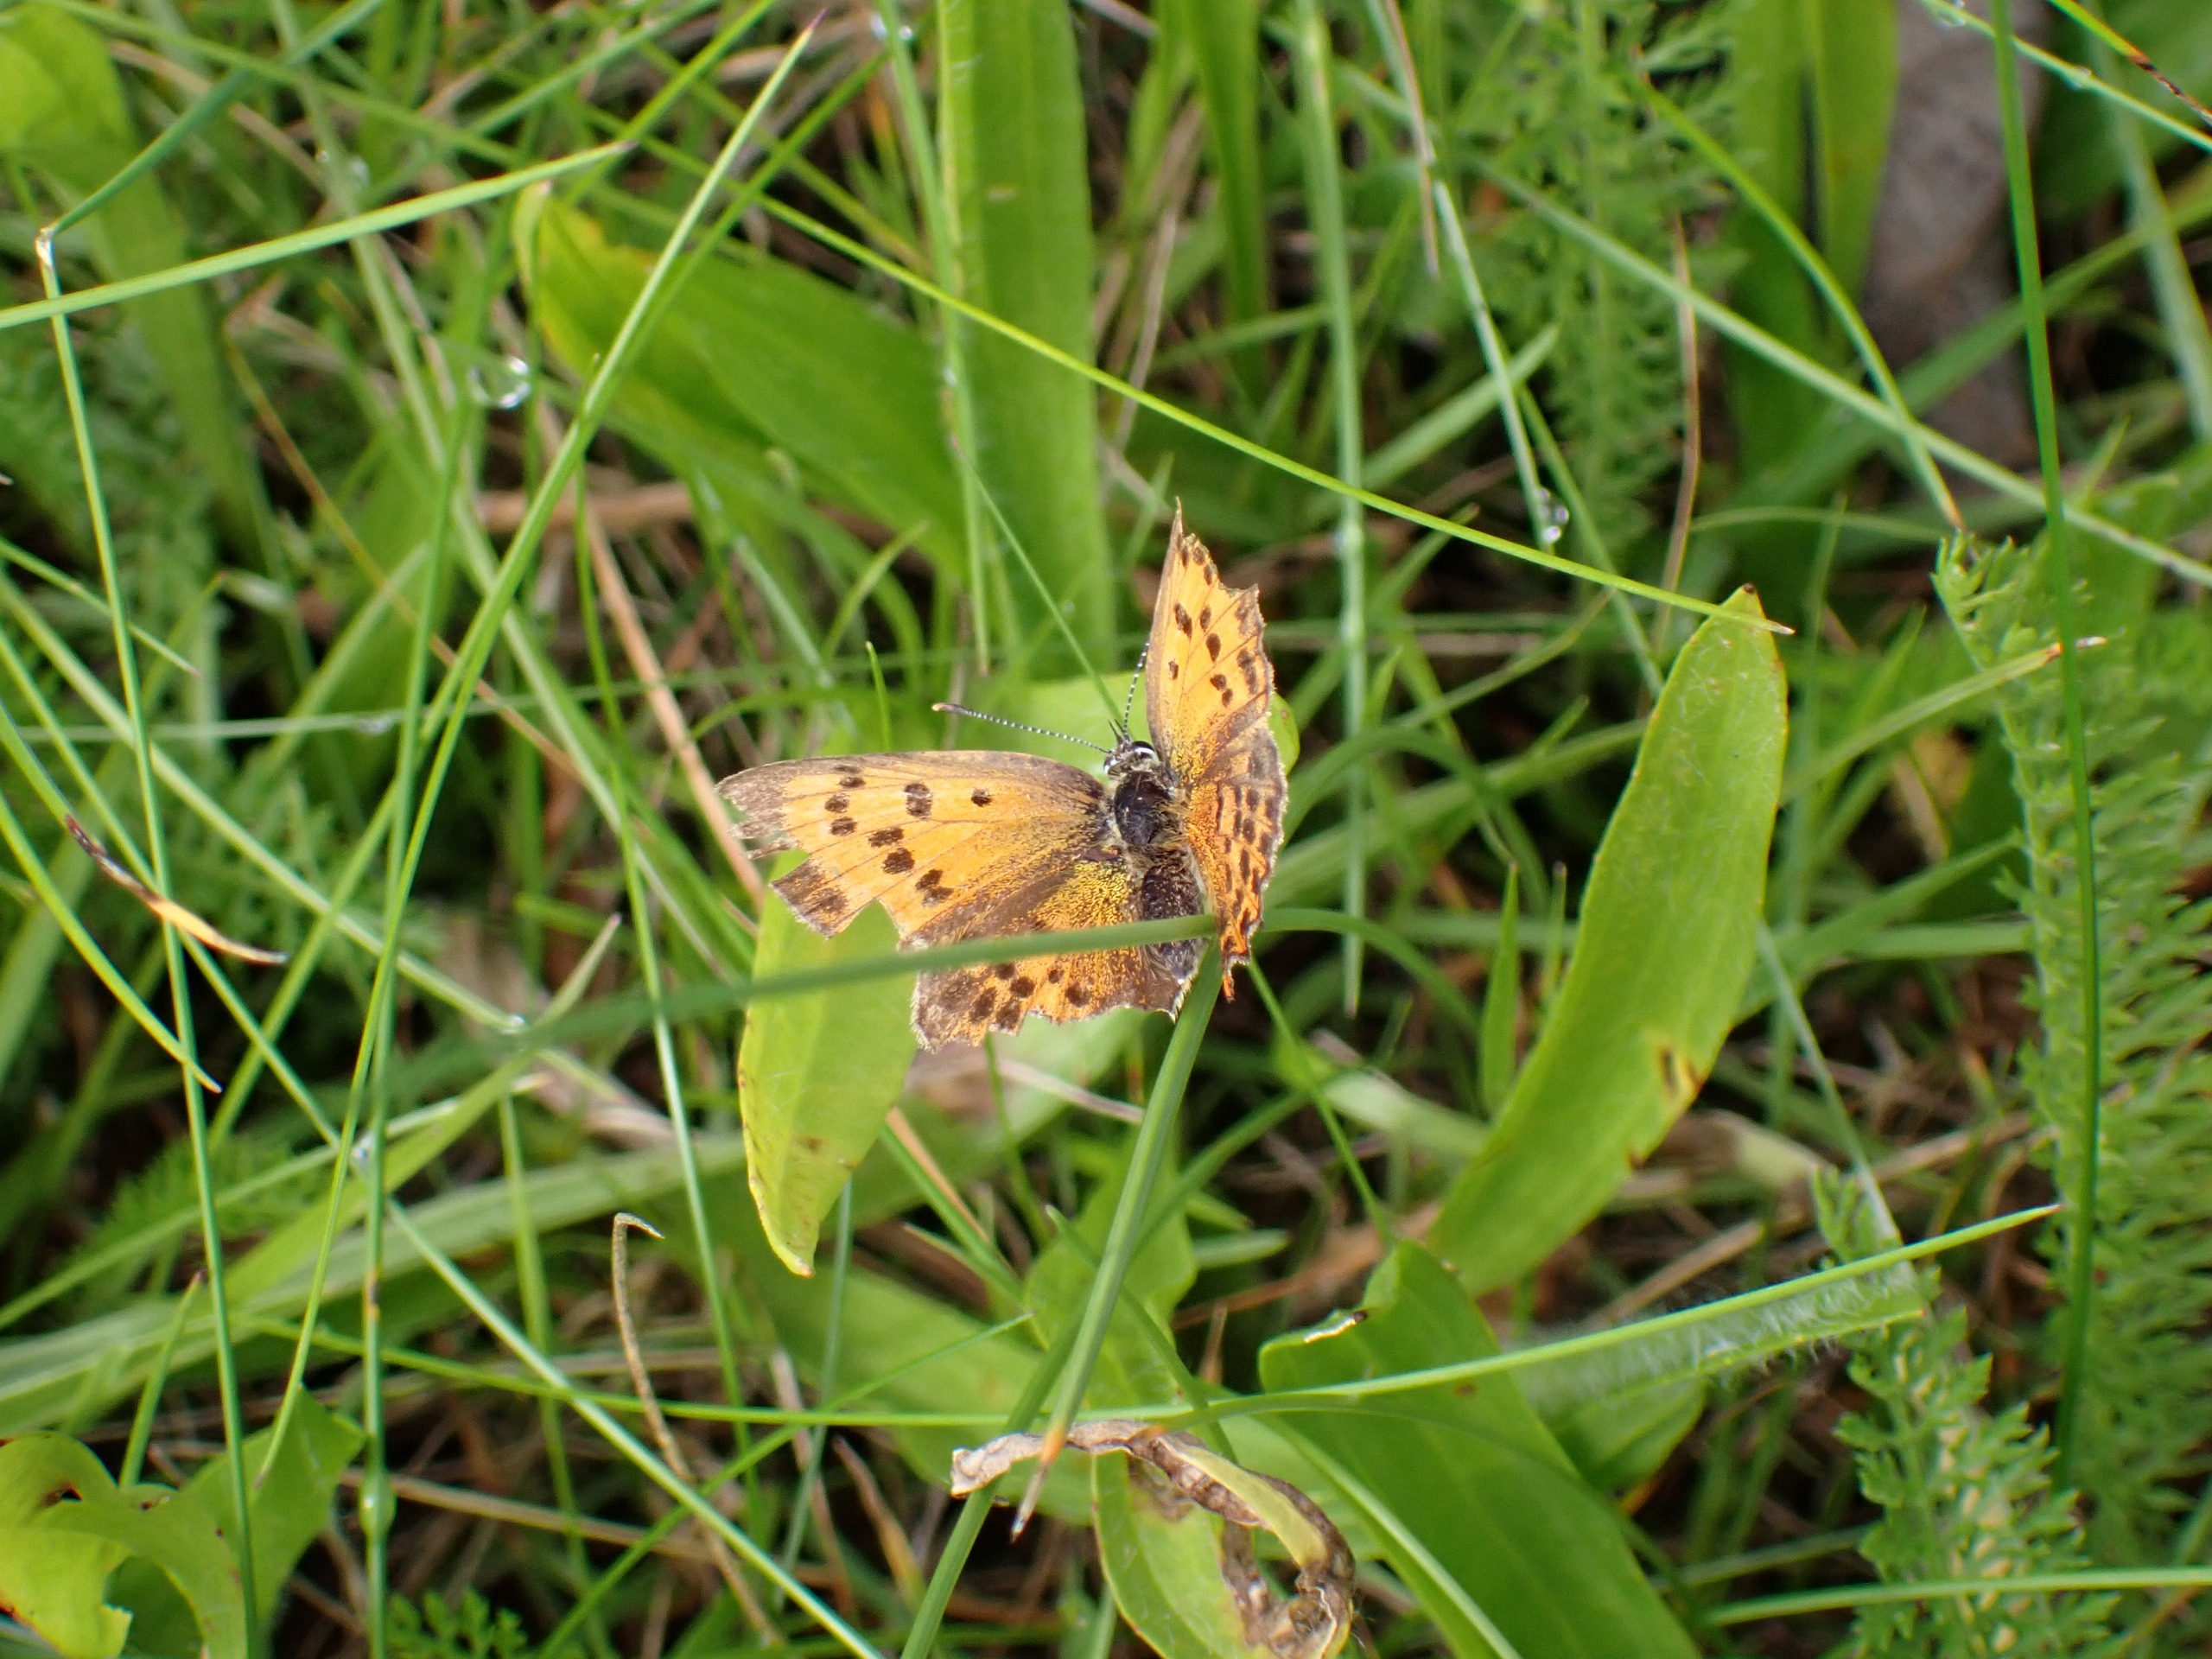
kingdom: Animalia
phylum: Arthropoda
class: Insecta
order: Lepidoptera
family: Lycaenidae
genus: Lycaena
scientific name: Lycaena virgaureae
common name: Dukatsommerfugl
